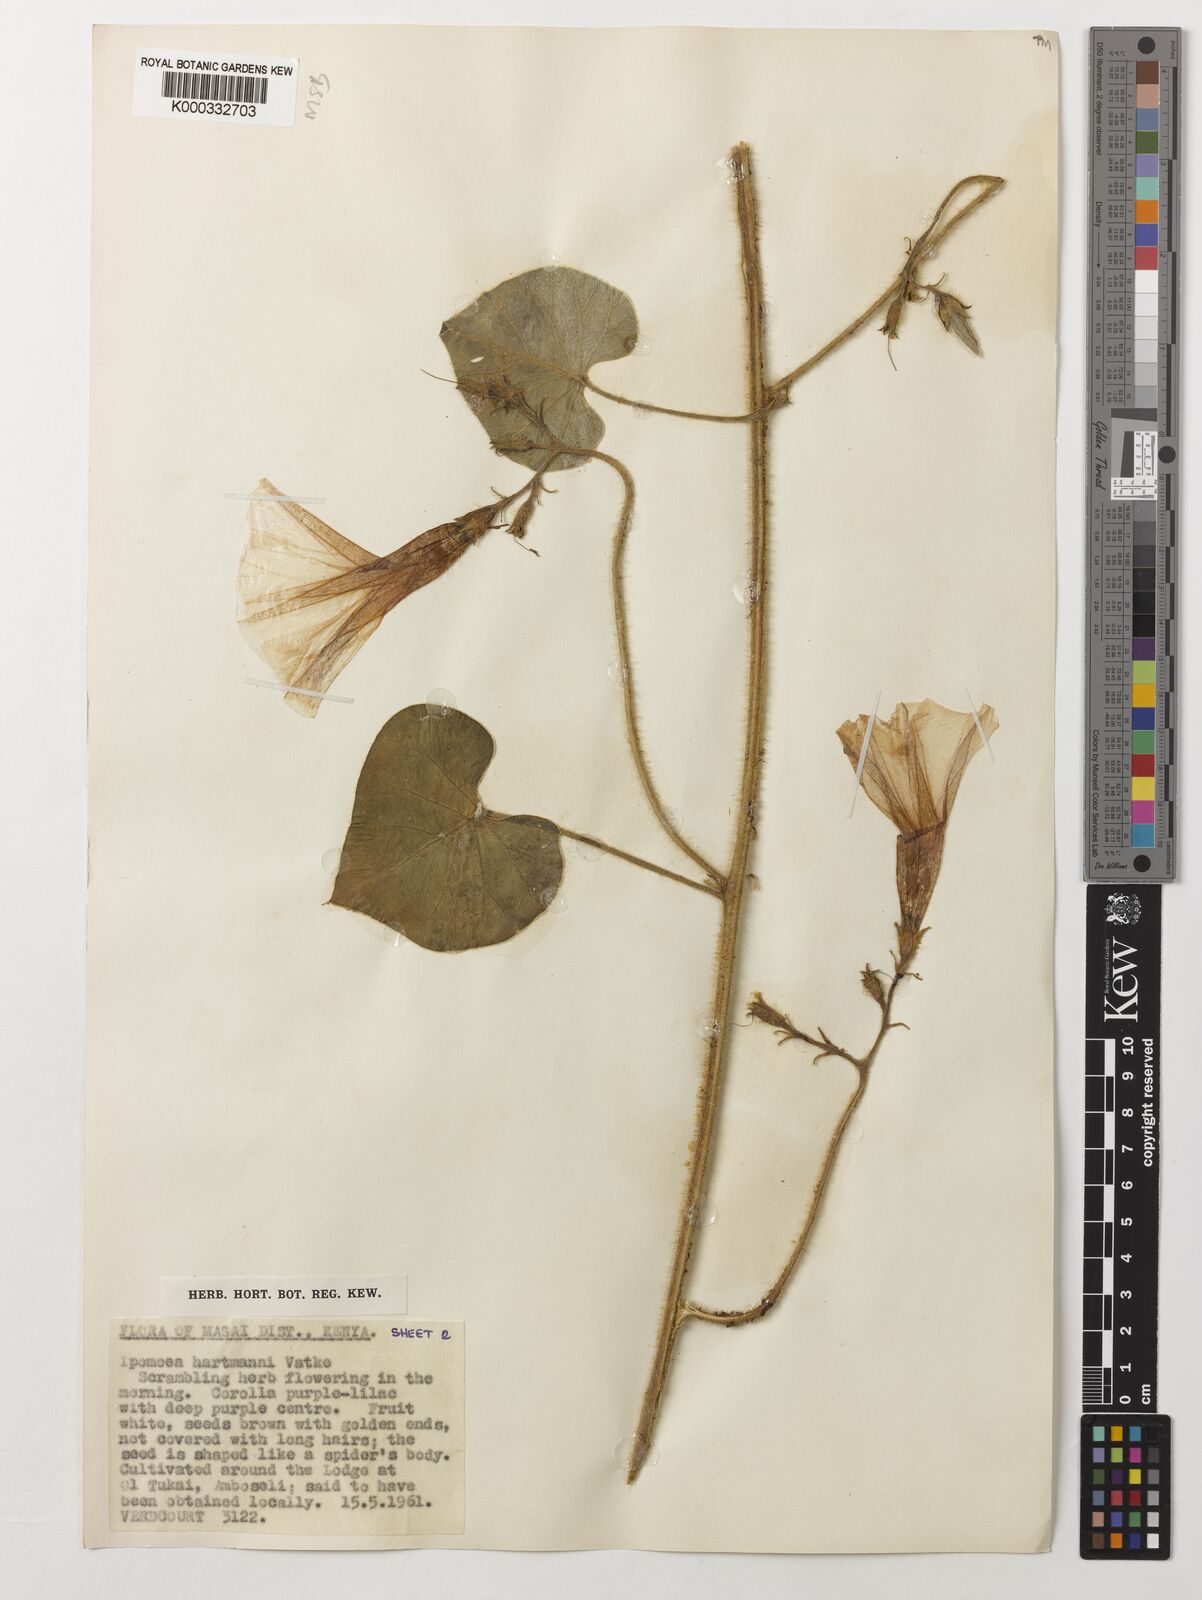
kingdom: Plantae
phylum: Tracheophyta
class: Magnoliopsida
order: Solanales
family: Convolvulaceae
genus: Ipomoea
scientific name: Ipomoea hartmannii
